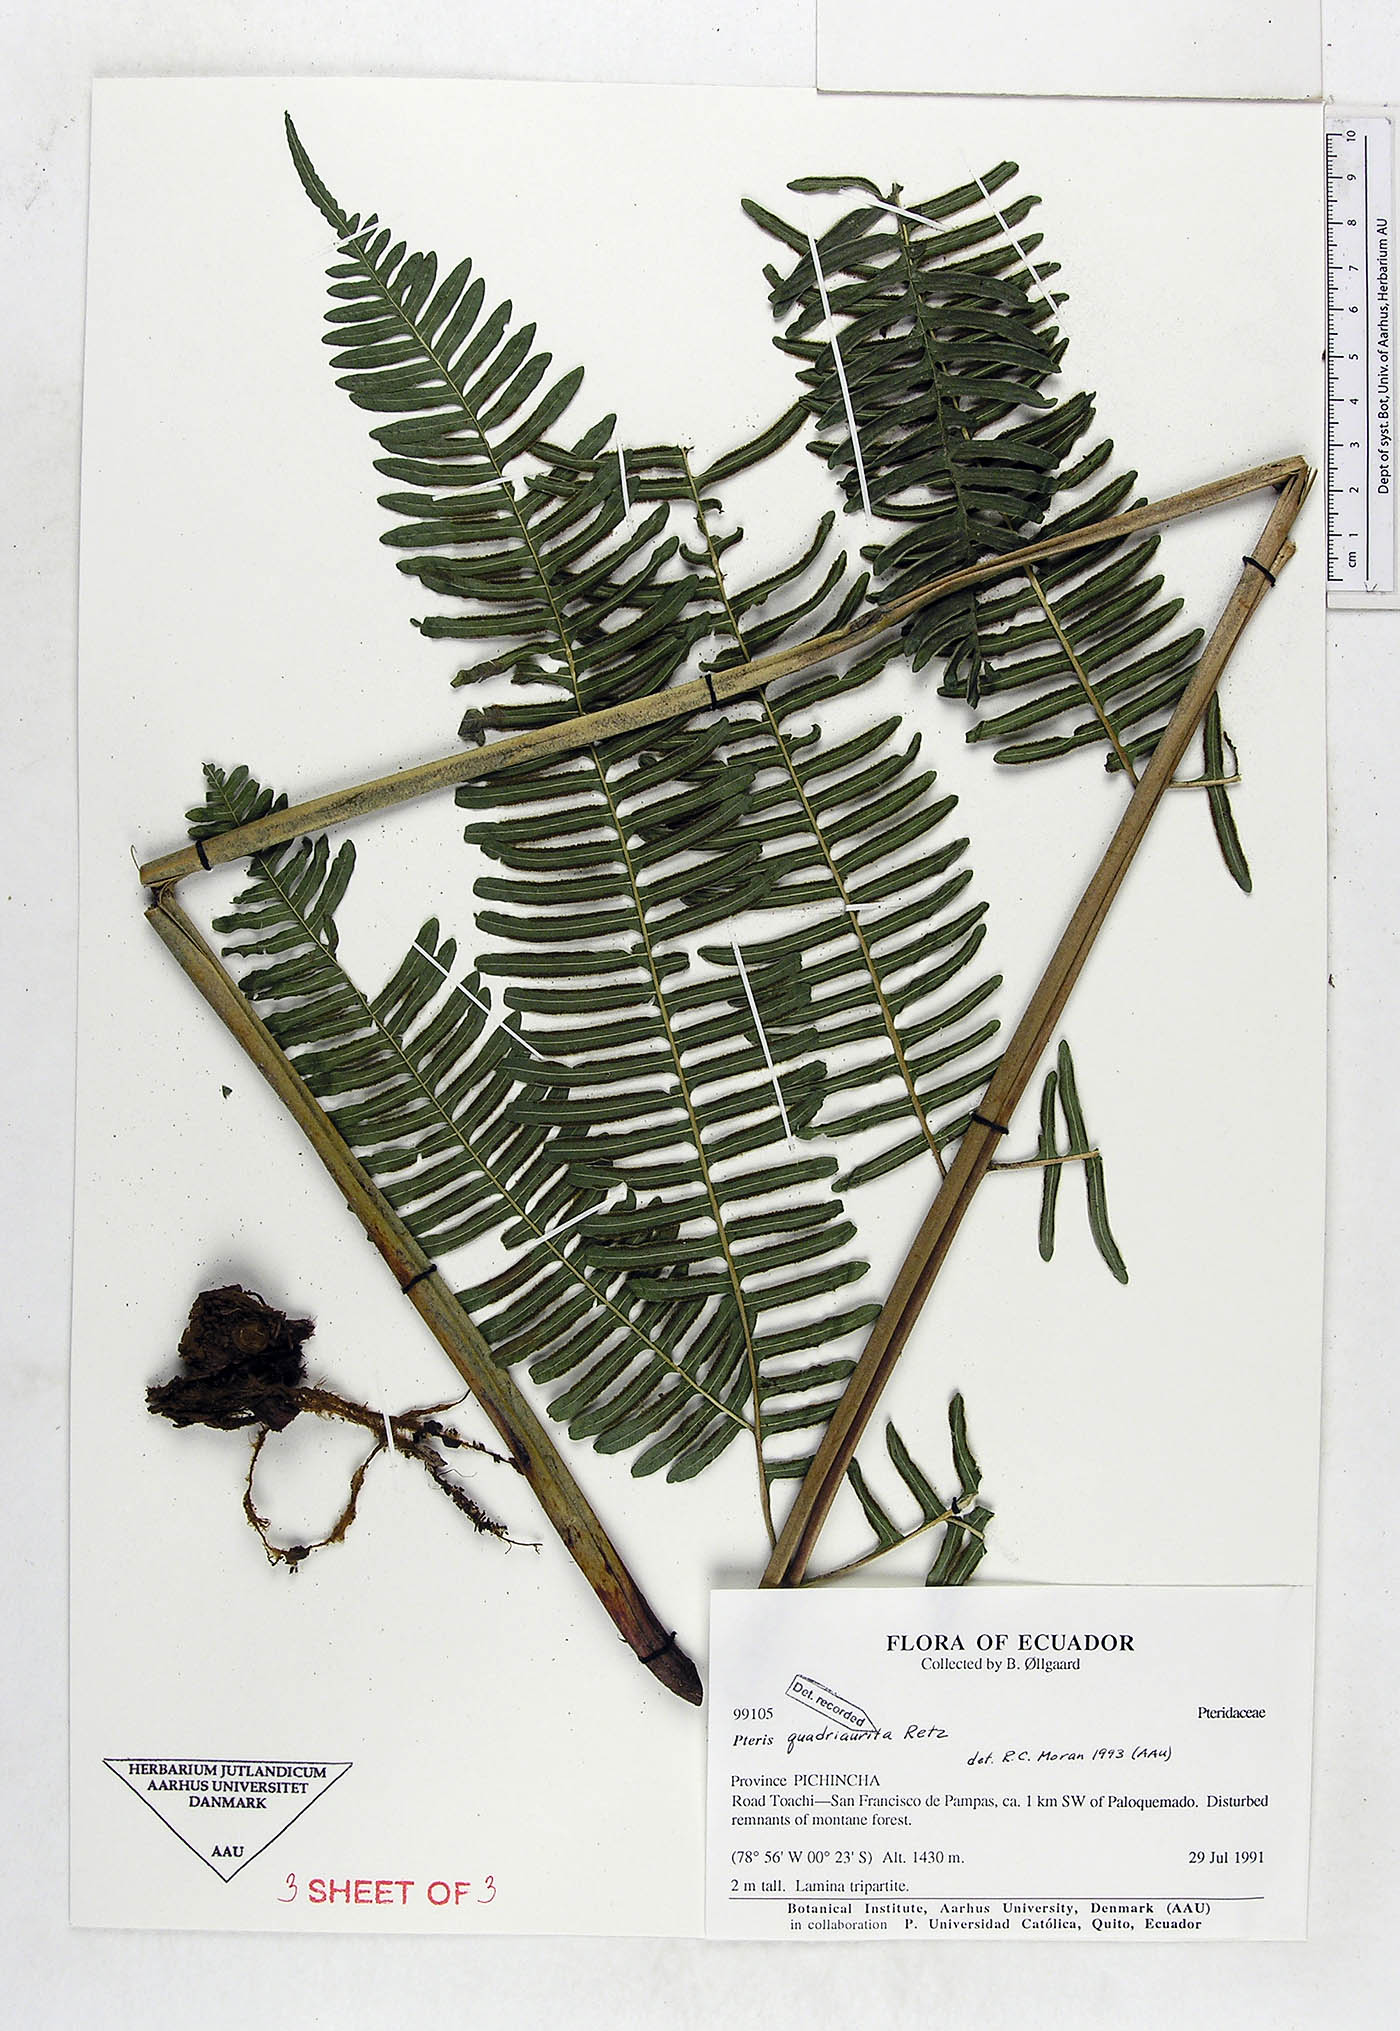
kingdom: Plantae
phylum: Tracheophyta
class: Polypodiopsida
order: Polypodiales
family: Pteridaceae
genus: Pteris
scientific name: Pteris quadriaurita
